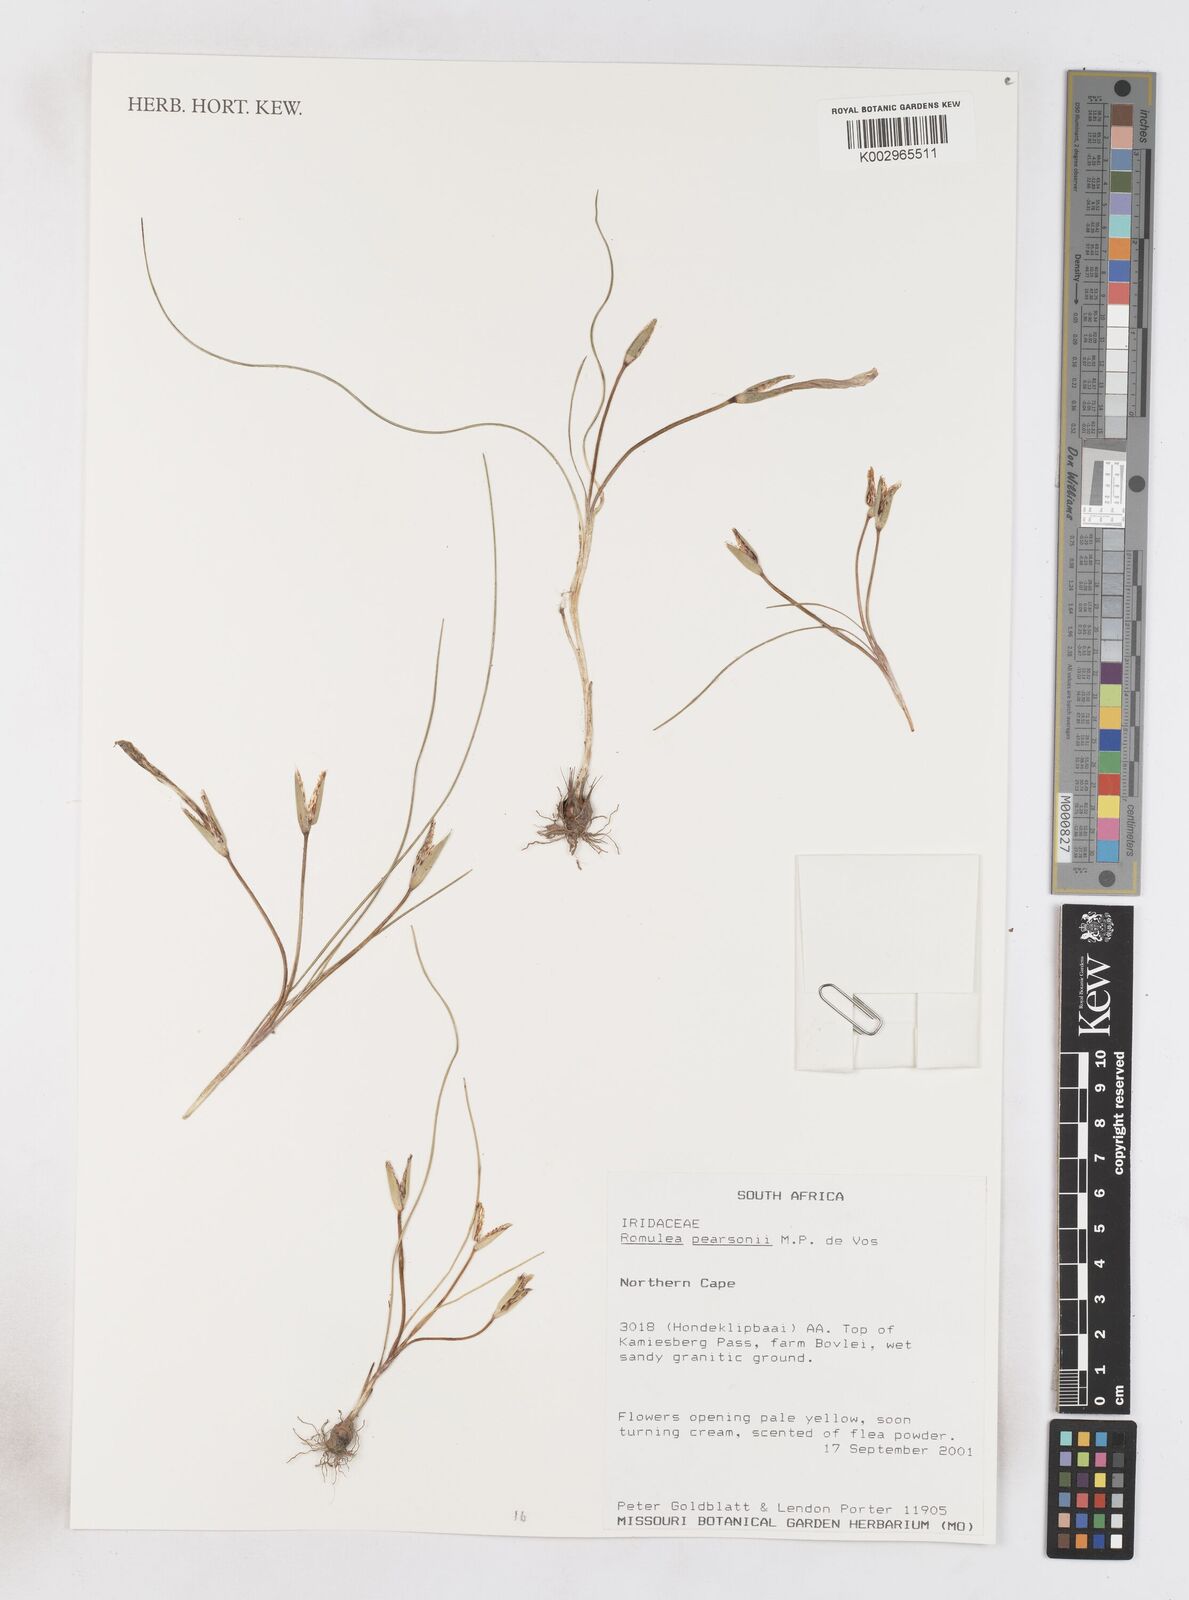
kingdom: Plantae
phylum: Tracheophyta
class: Liliopsida
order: Asparagales
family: Iridaceae
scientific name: Iridaceae
